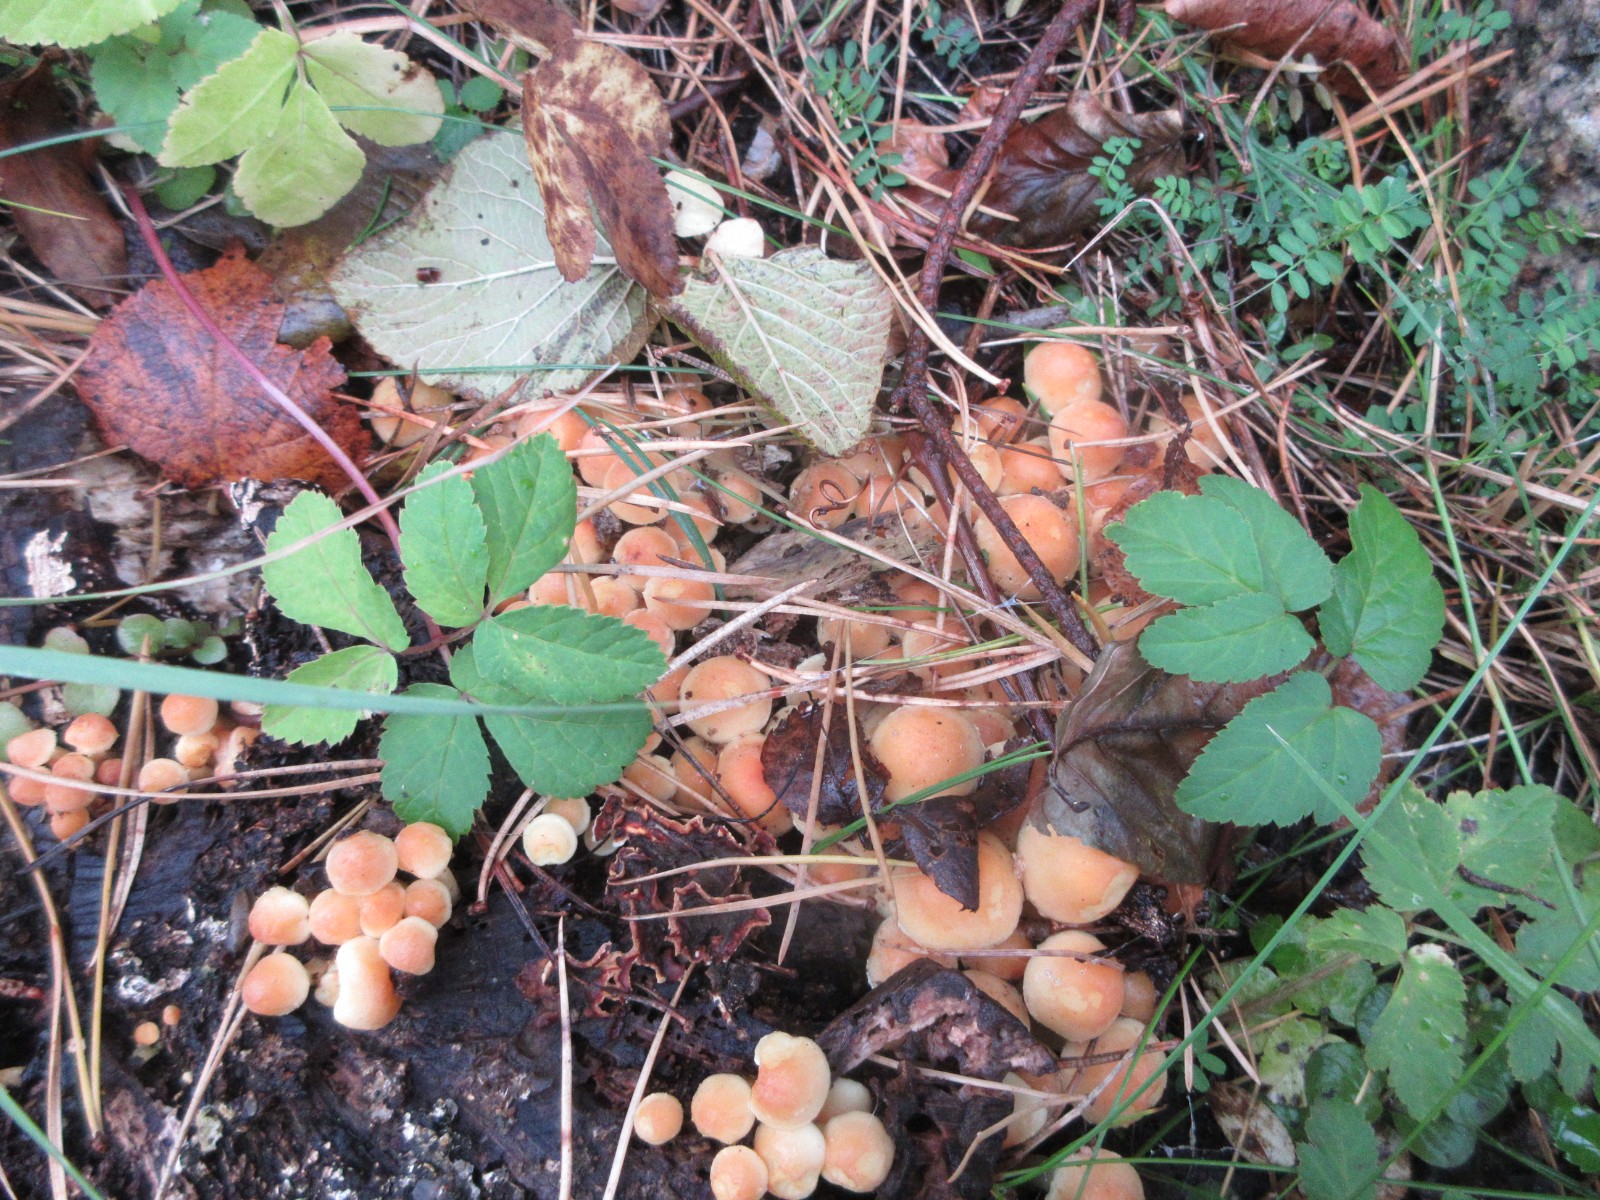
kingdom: Fungi
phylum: Basidiomycota
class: Agaricomycetes
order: Agaricales
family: Strophariaceae
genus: Hypholoma
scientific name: Hypholoma fasciculare
